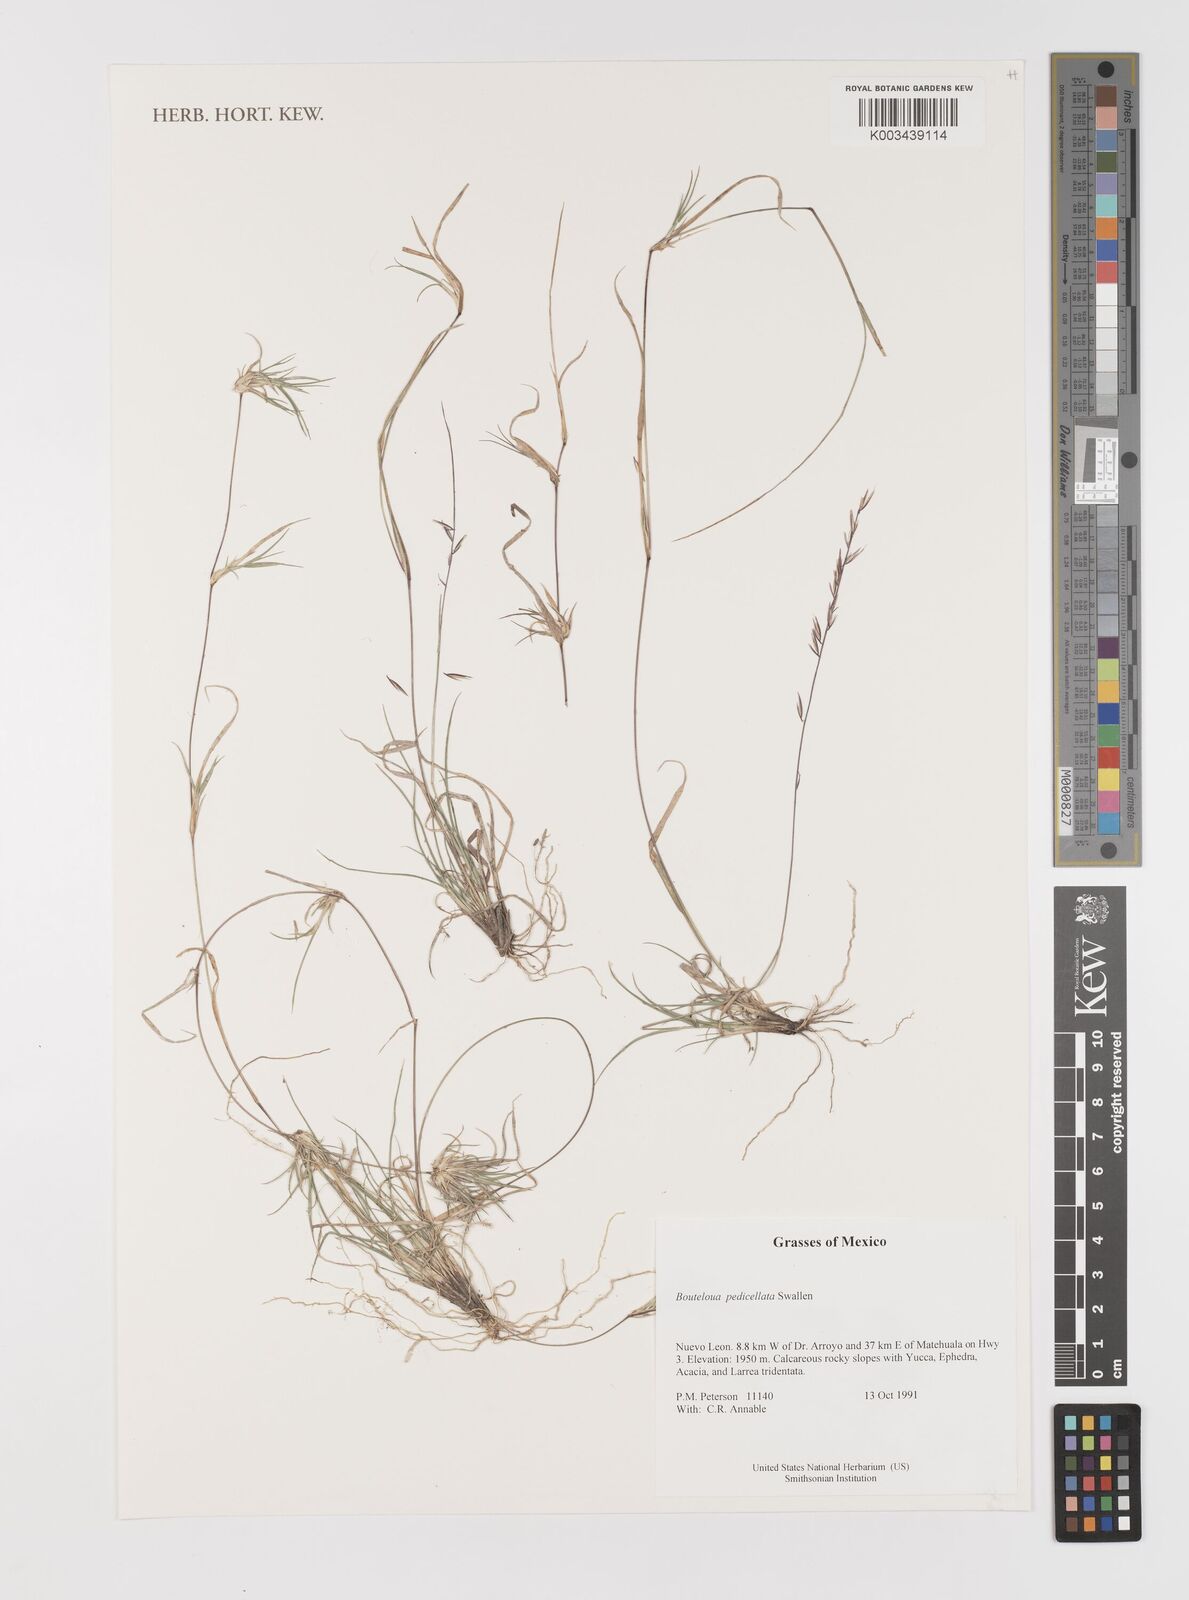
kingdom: Plantae
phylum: Tracheophyta
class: Liliopsida
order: Poales
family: Poaceae
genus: Bouteloua
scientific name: Bouteloua pedicellata
